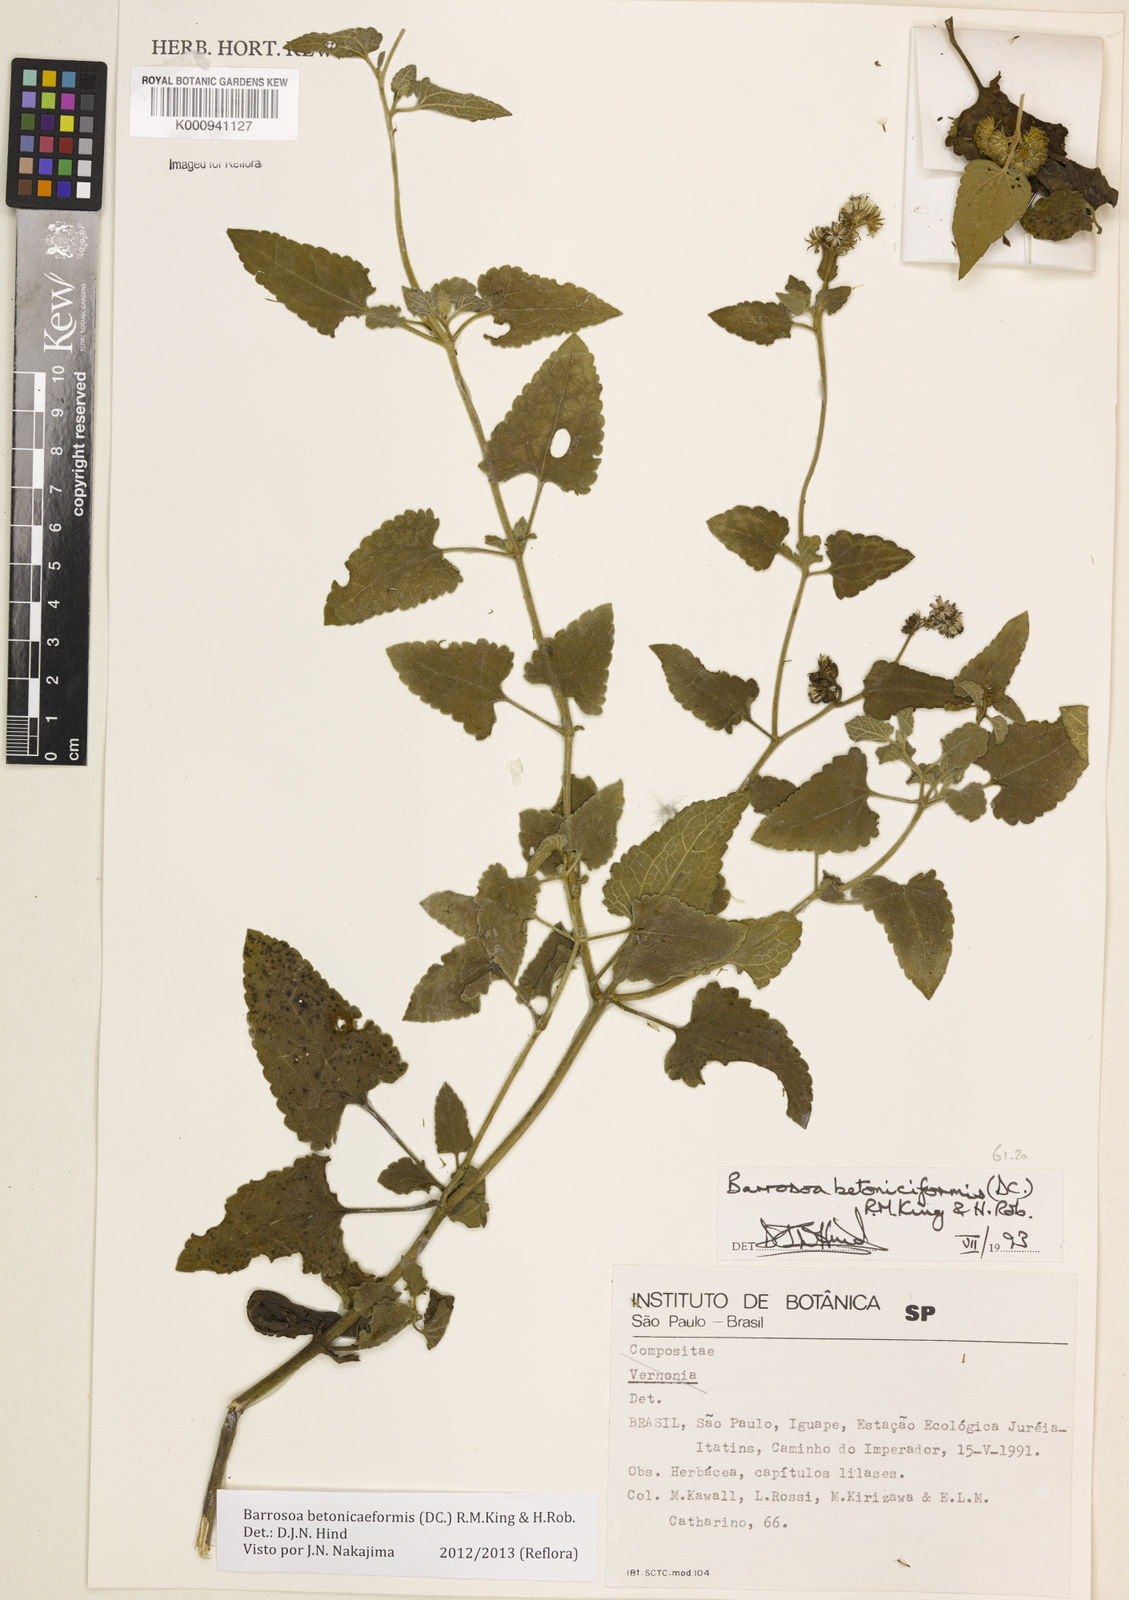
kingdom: Plantae
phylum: Tracheophyta
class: Magnoliopsida
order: Asterales
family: Asteraceae
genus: Barrosoa
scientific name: Barrosoa betoniciformis
